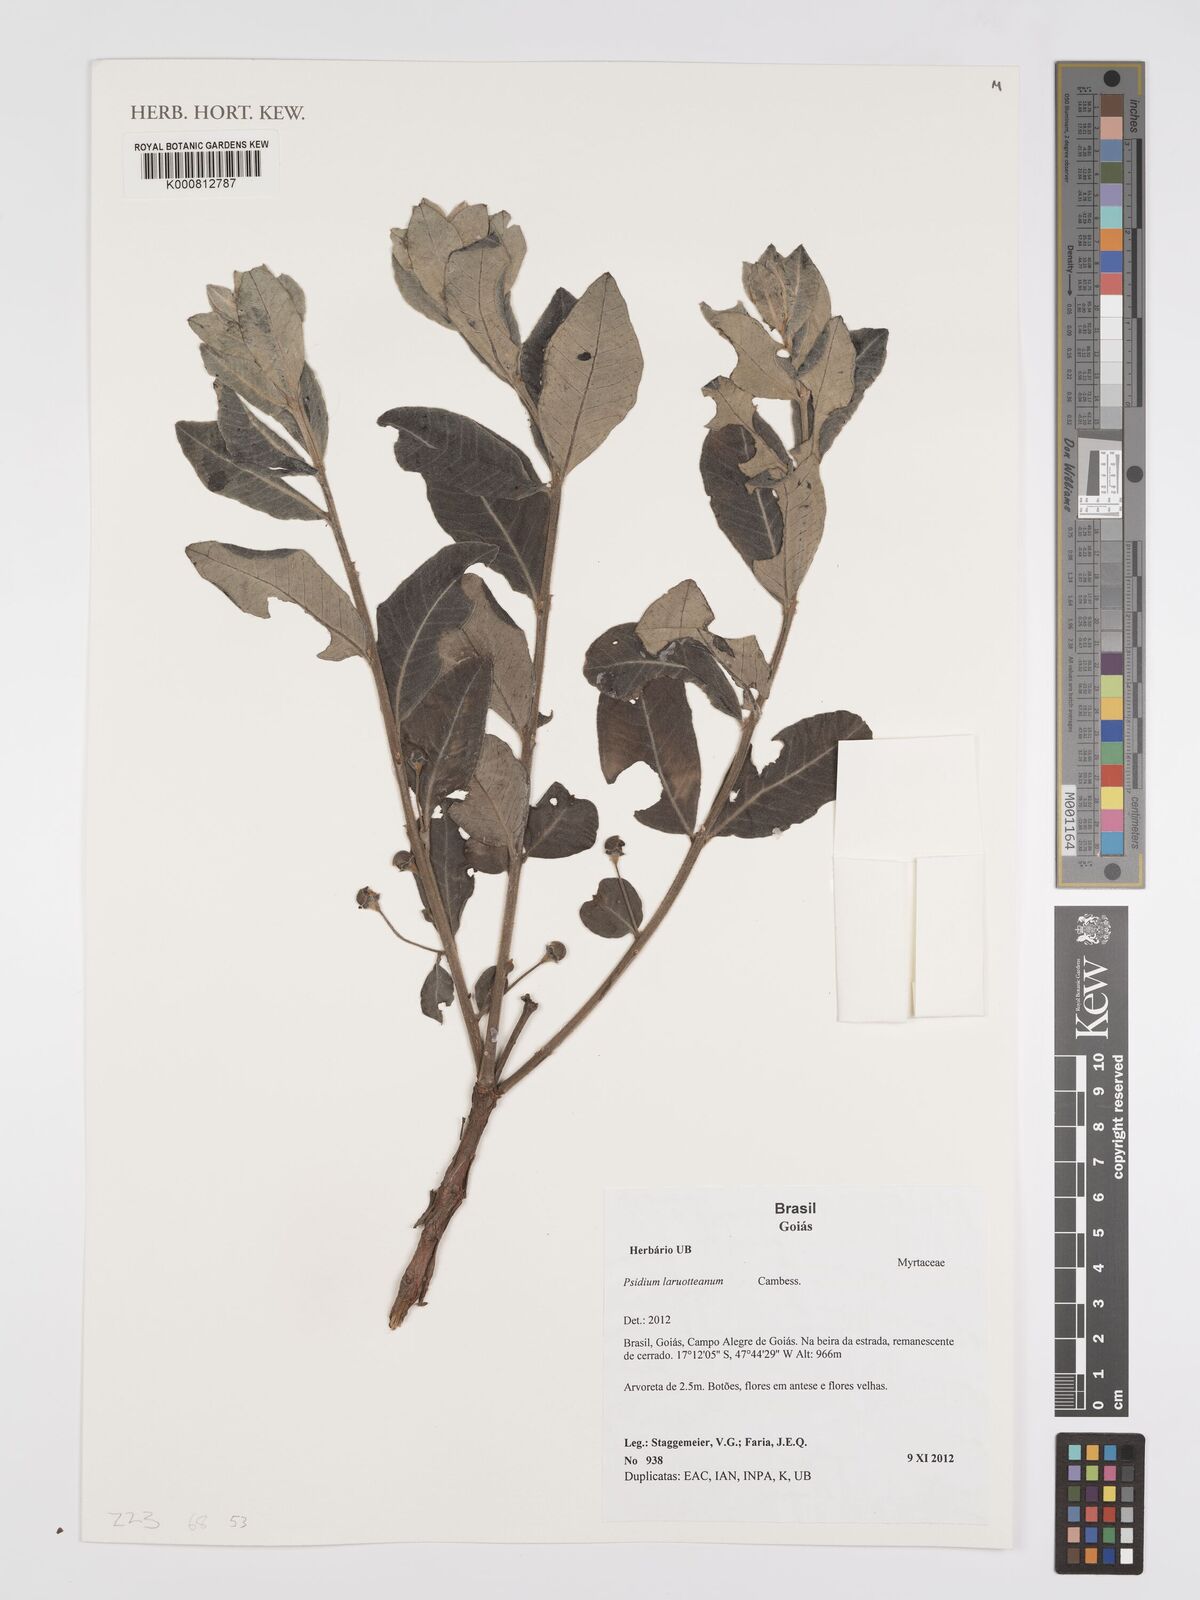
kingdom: Plantae
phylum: Tracheophyta
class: Magnoliopsida
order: Myrtales
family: Myrtaceae
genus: Psidium
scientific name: Psidium larueotteanum
